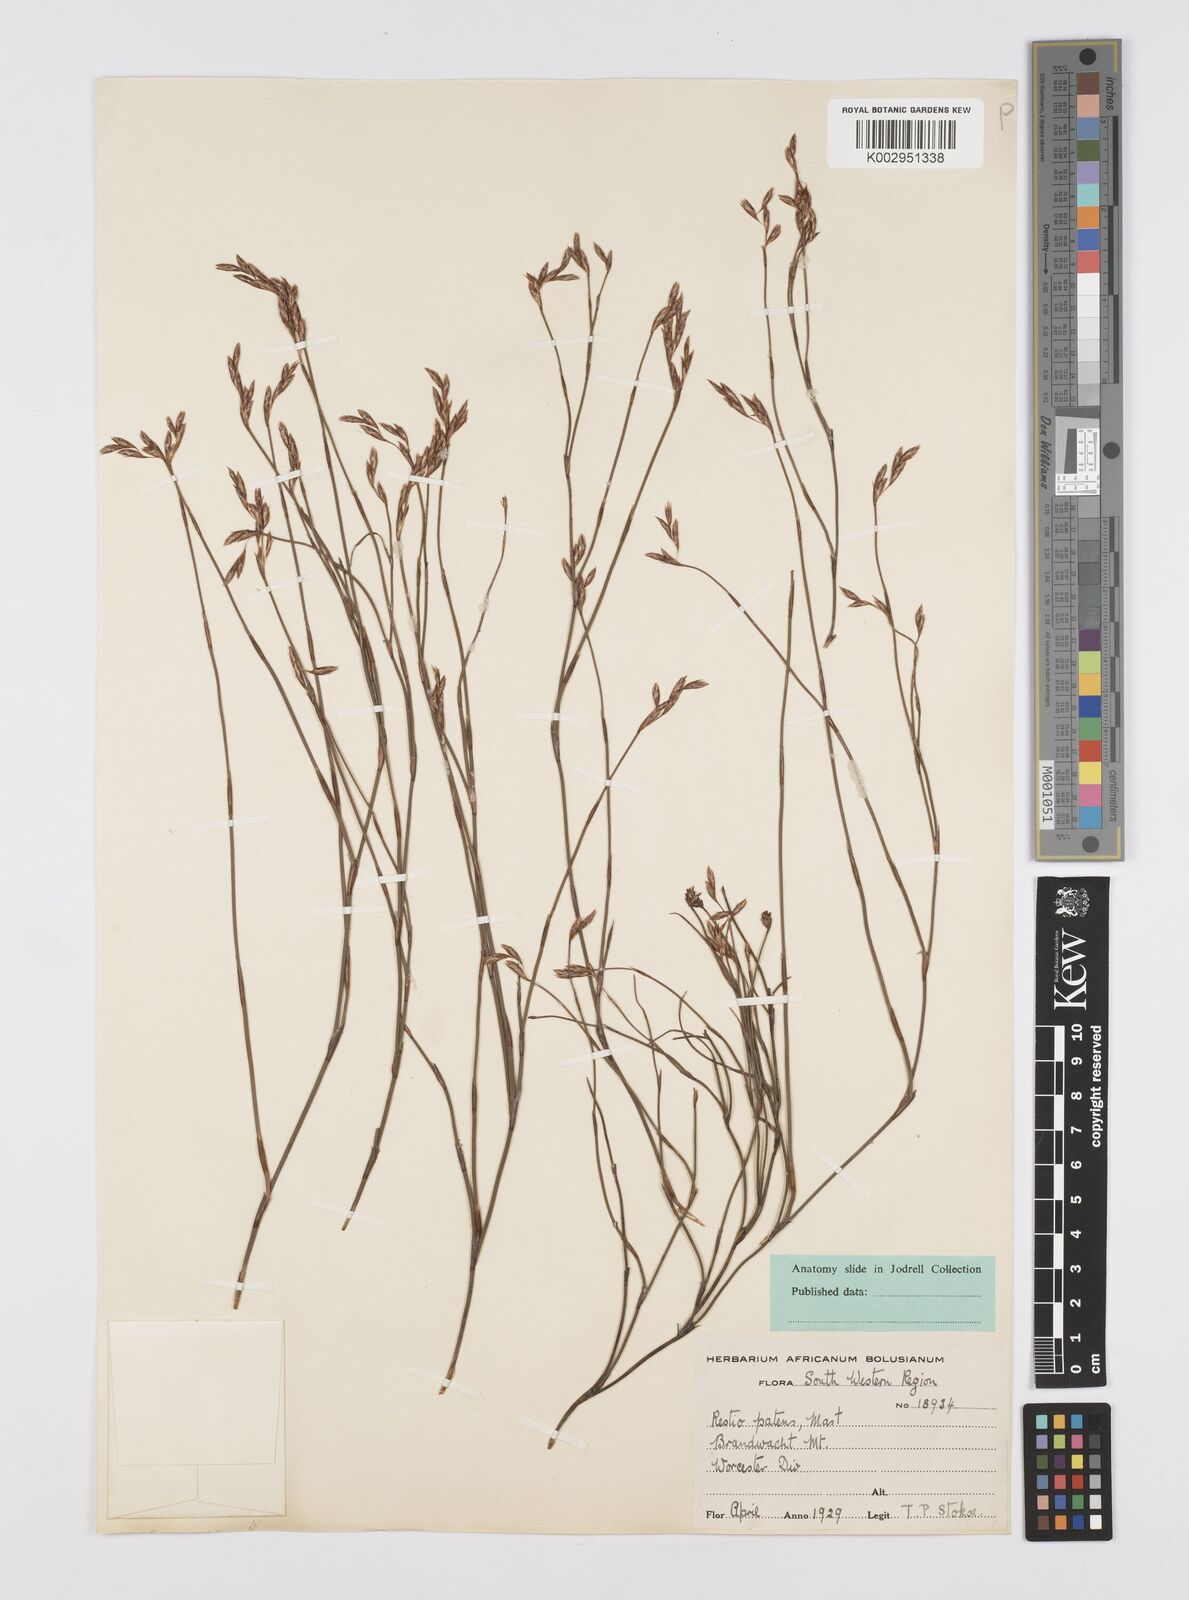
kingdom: Plantae
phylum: Tracheophyta
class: Liliopsida
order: Poales
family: Restionaceae
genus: Restio
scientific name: Restio patens
